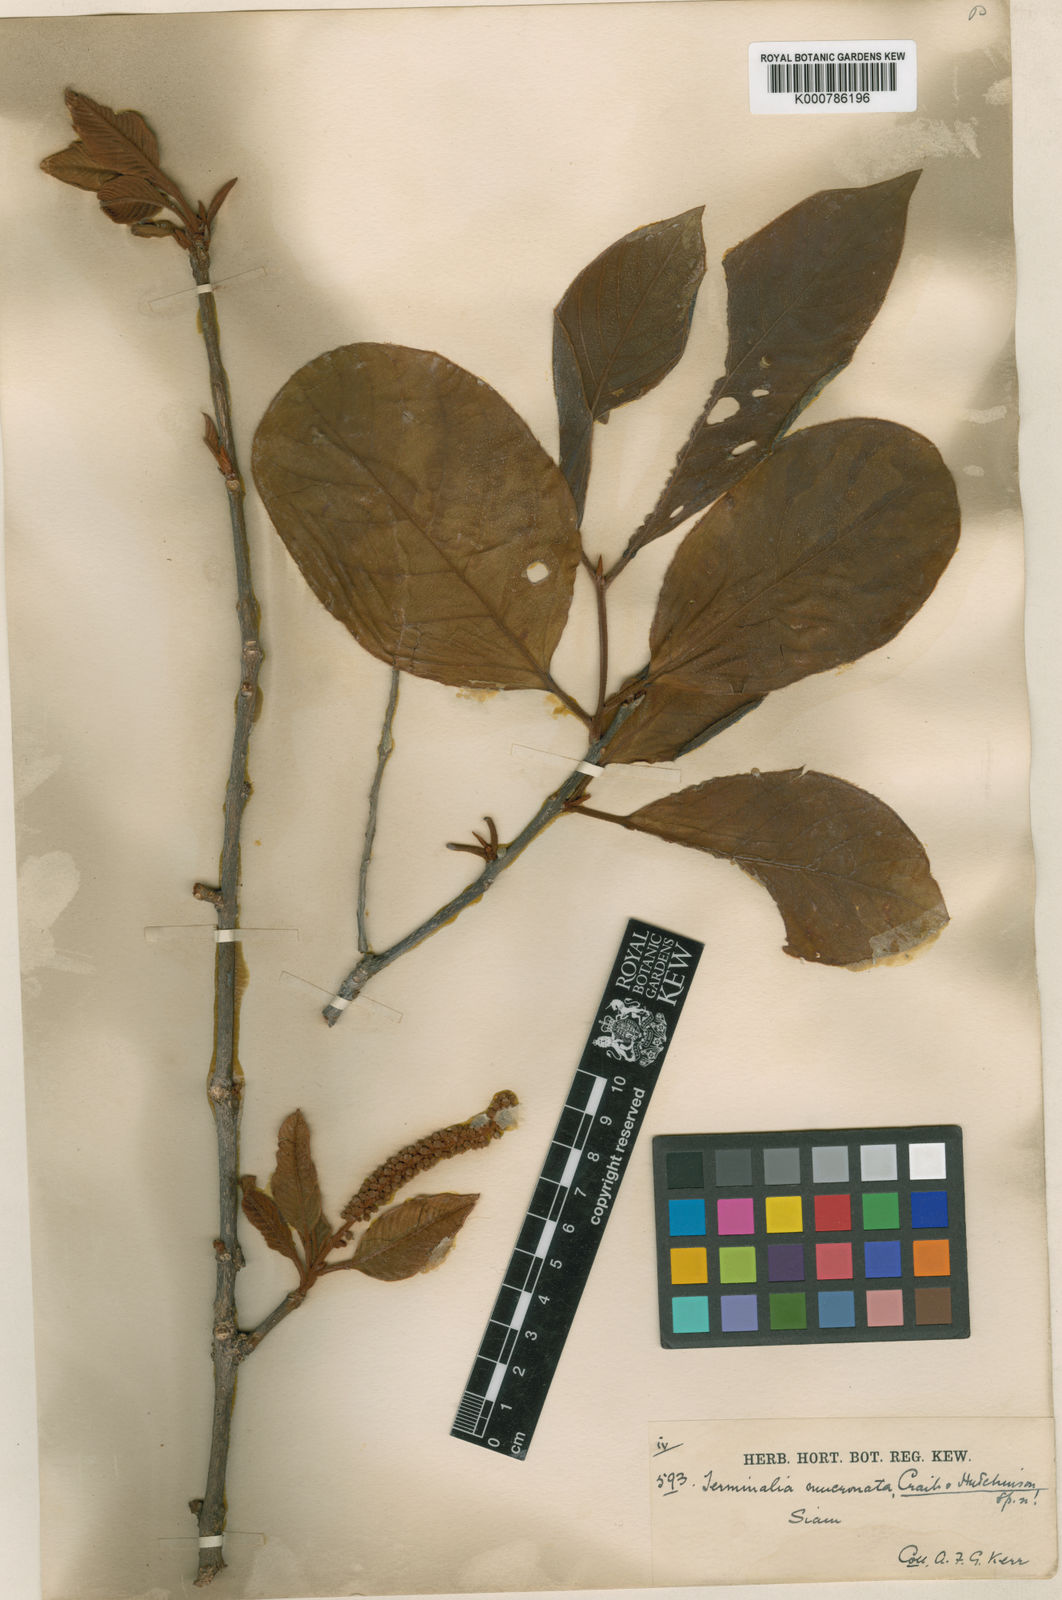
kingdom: Plantae
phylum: Tracheophyta
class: Magnoliopsida
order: Myrtales
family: Combretaceae
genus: Terminalia
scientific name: Terminalia corticosa
